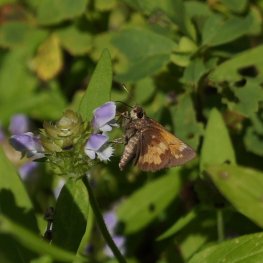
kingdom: Animalia
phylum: Arthropoda
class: Insecta
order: Lepidoptera
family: Hesperiidae
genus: Lon
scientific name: Lon hobomok
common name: Hobomok Skipper
